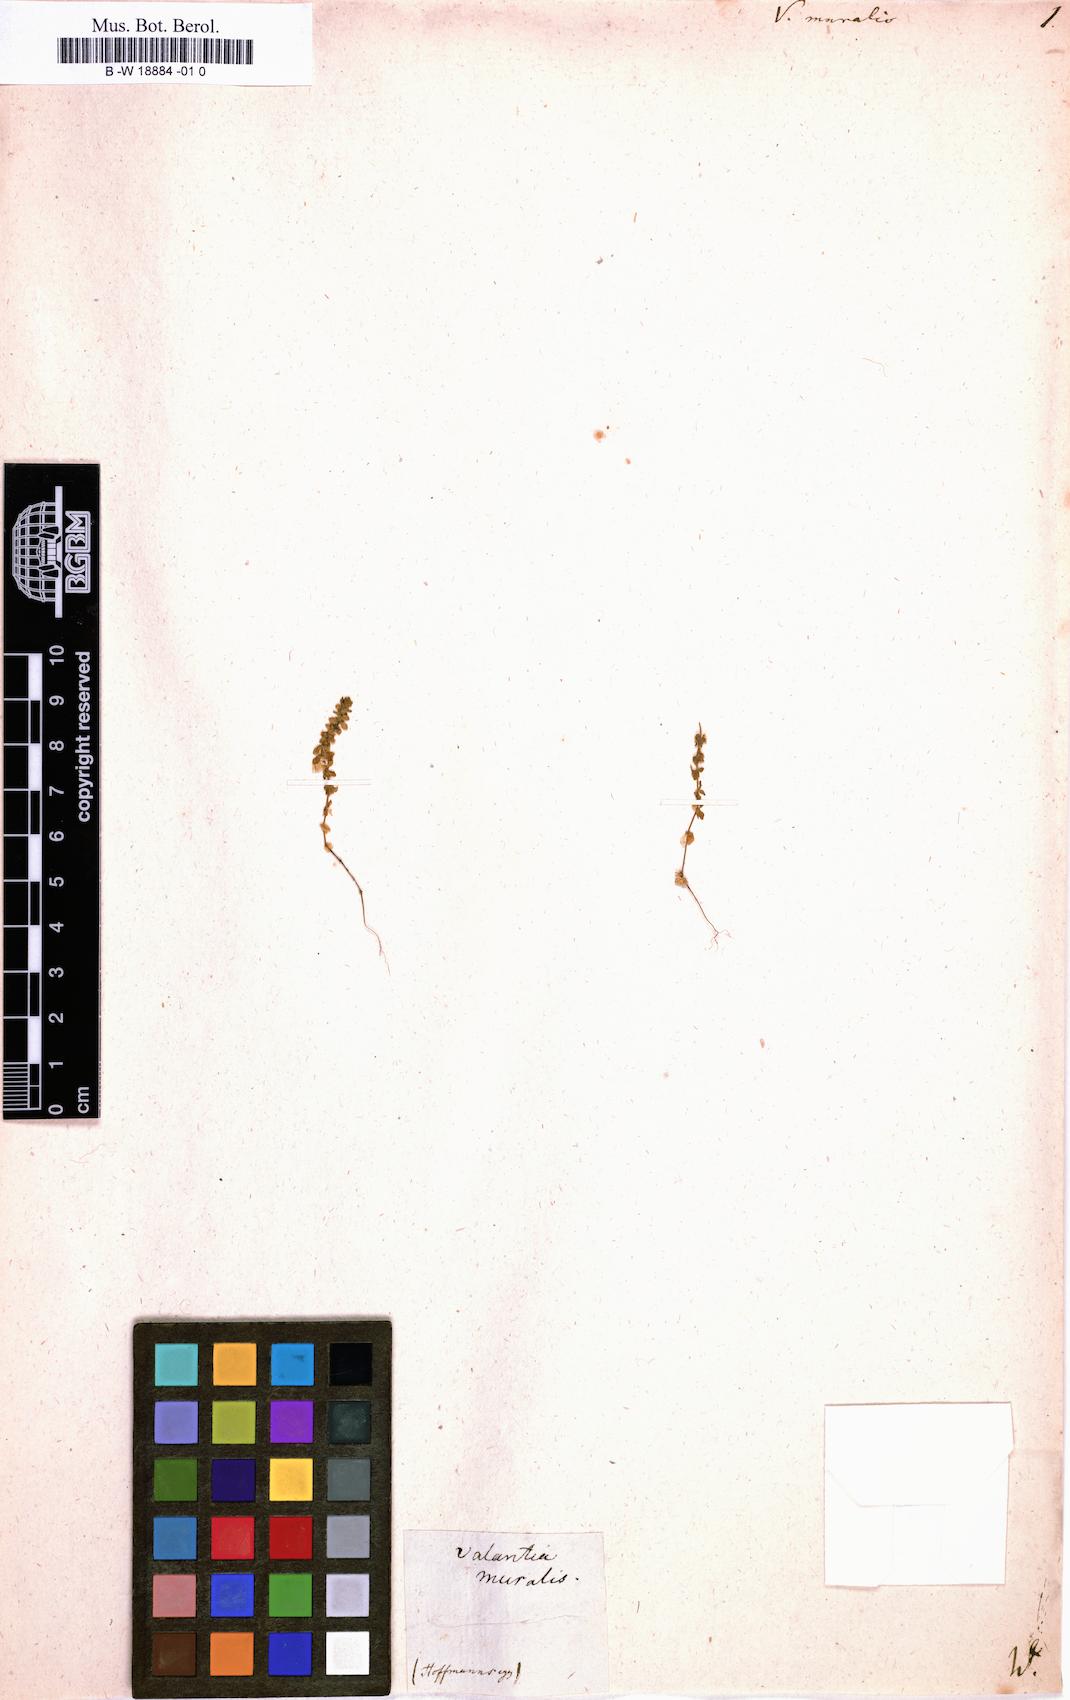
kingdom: Plantae
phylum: Tracheophyta
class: Magnoliopsida
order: Gentianales
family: Rubiaceae
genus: Valantia
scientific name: Valantia muralis
